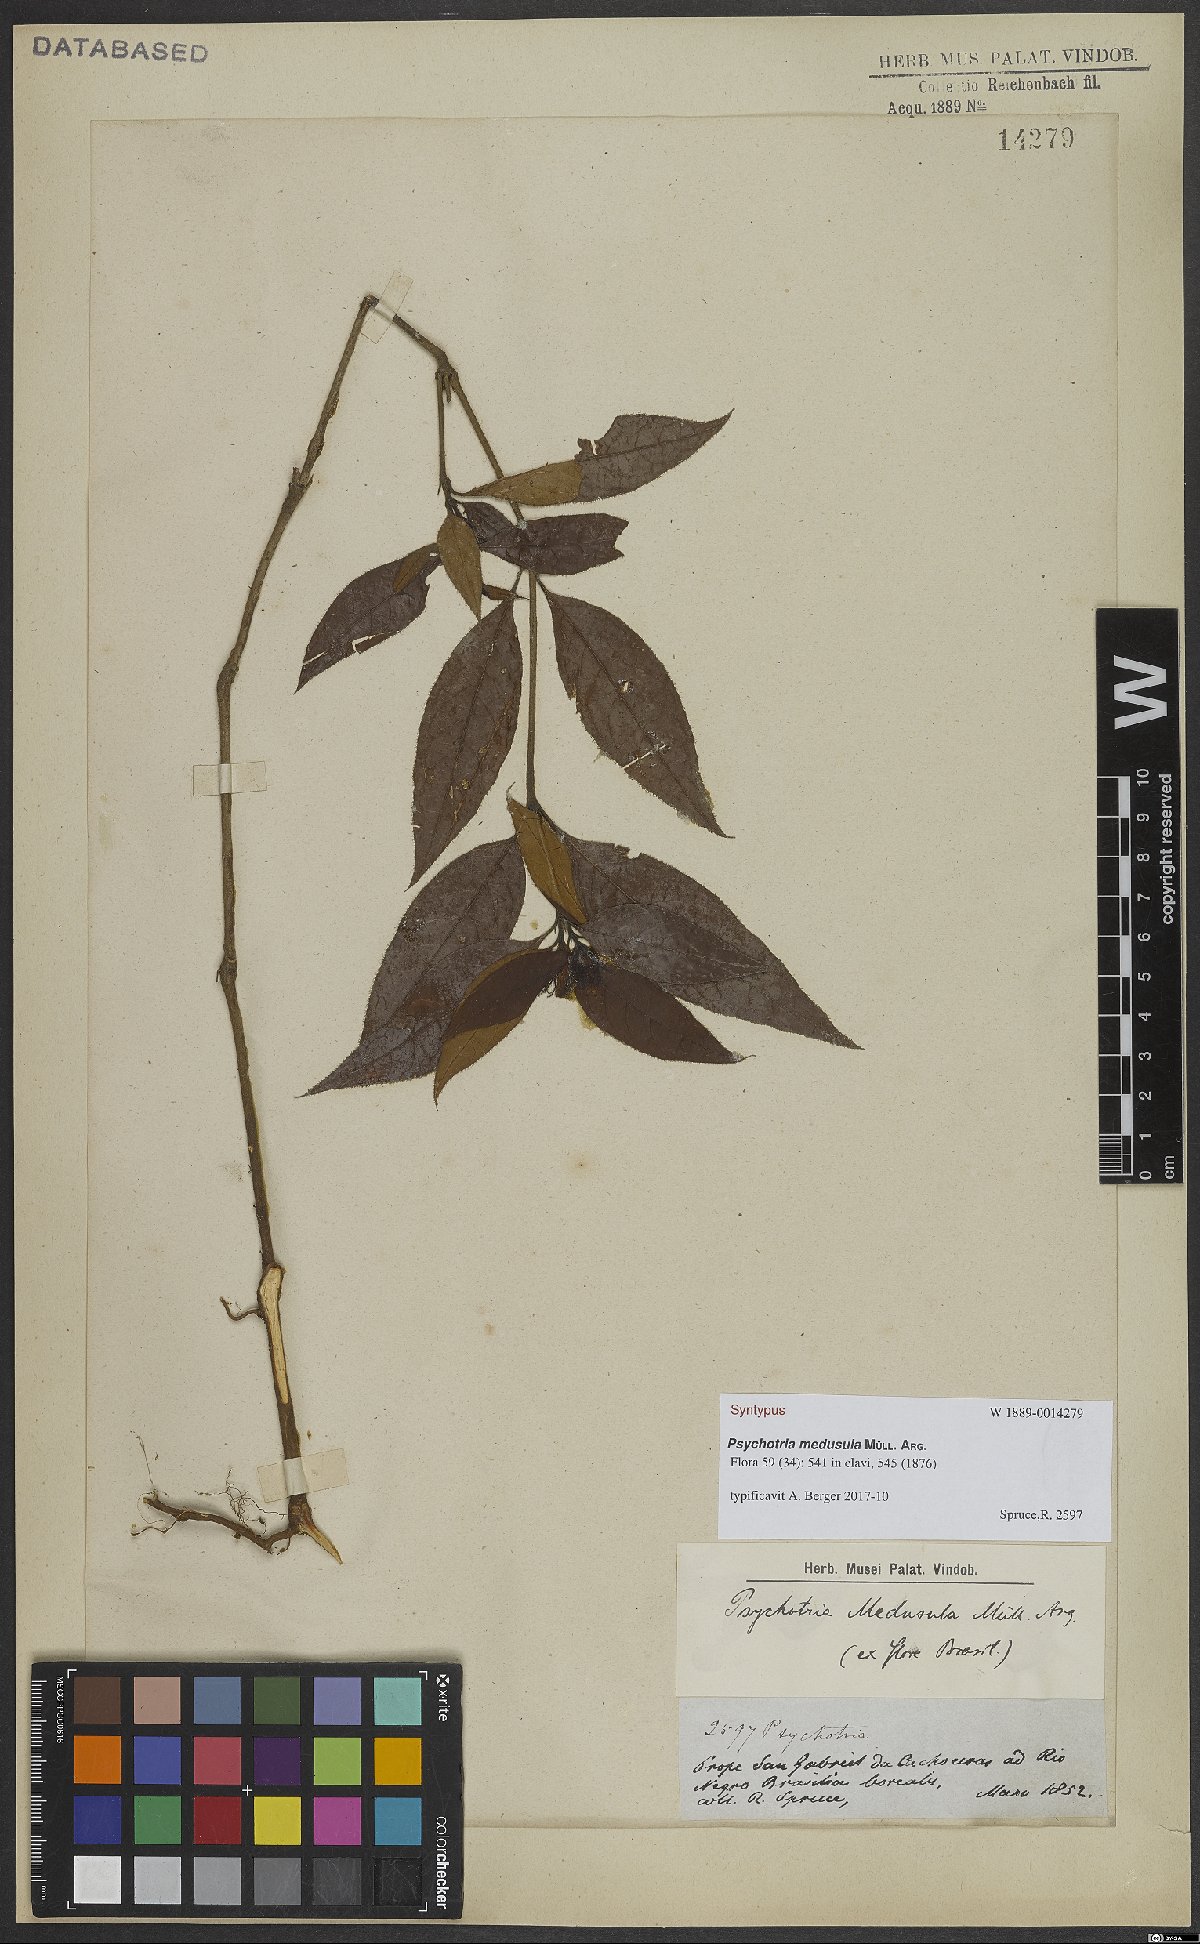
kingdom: Plantae
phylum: Tracheophyta
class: Magnoliopsida
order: Gentianales
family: Rubiaceae
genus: Palicourea
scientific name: Palicourea glabra
